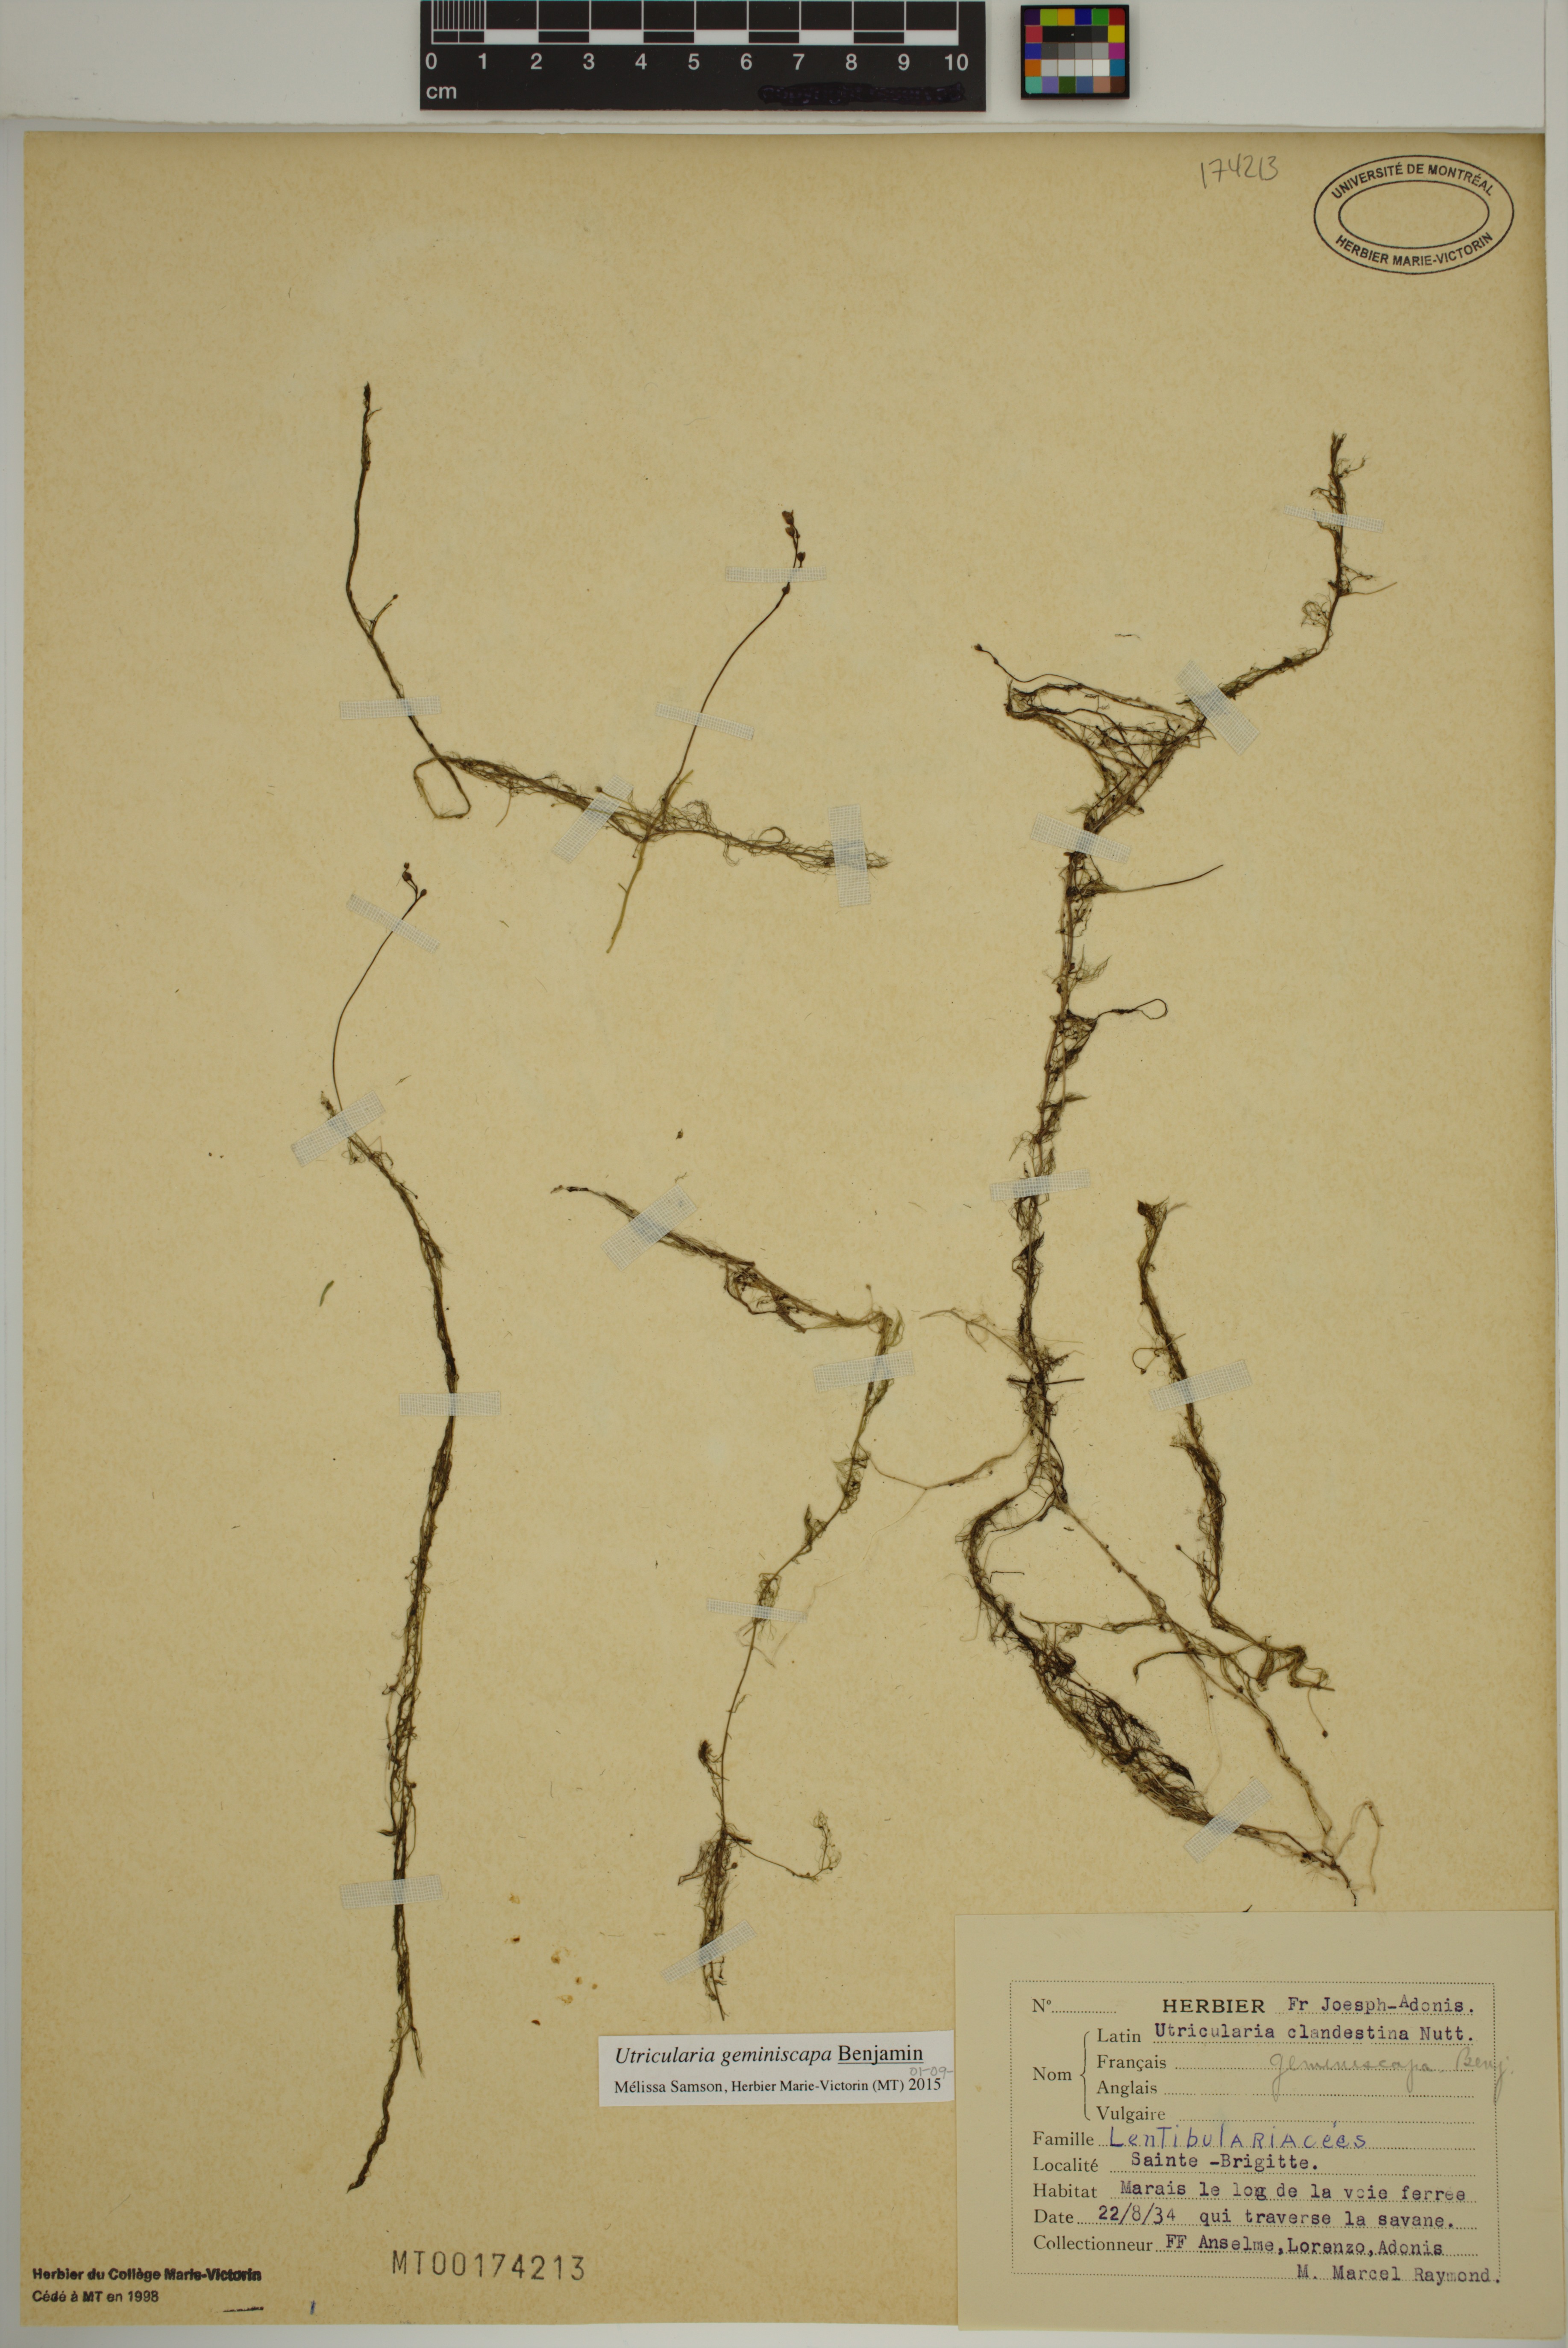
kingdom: Plantae
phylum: Tracheophyta
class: Magnoliopsida
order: Lamiales
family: Lentibulariaceae
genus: Utricularia
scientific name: Utricularia geminiscapa
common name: Hidden-fruit bladderwort
